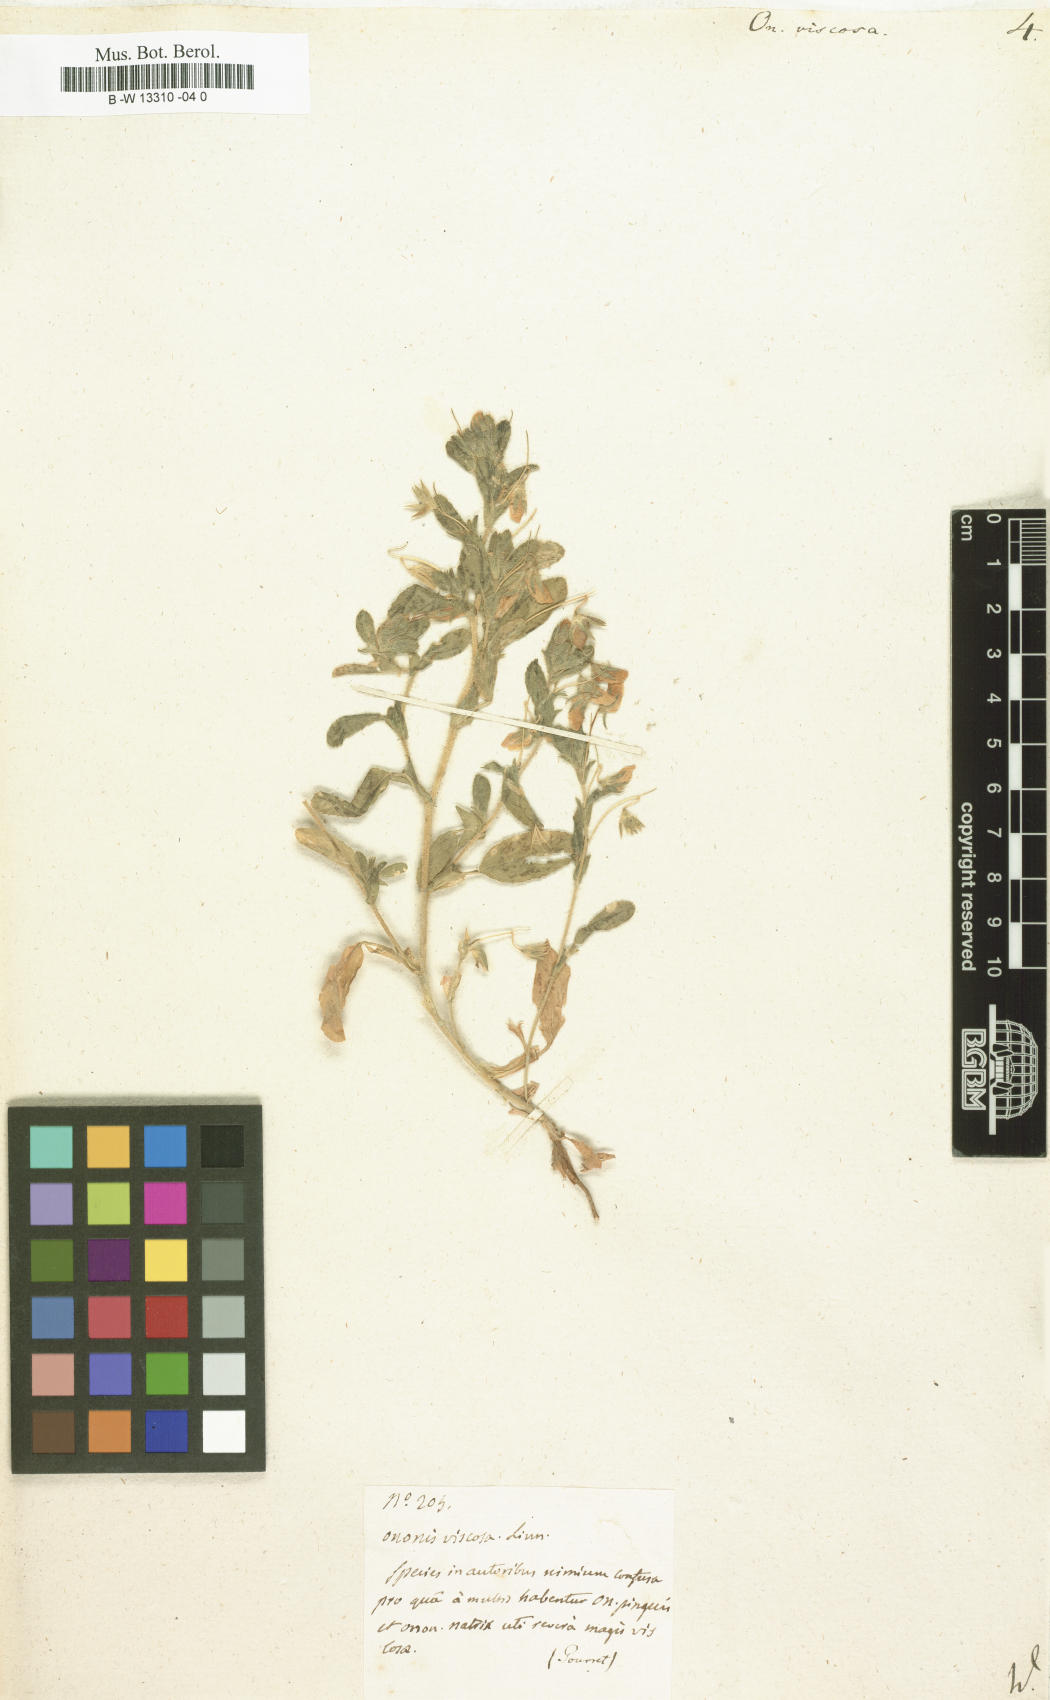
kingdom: Plantae
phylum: Tracheophyta
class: Magnoliopsida
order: Fabales
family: Fabaceae
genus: Ononis
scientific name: Ononis viscosa
